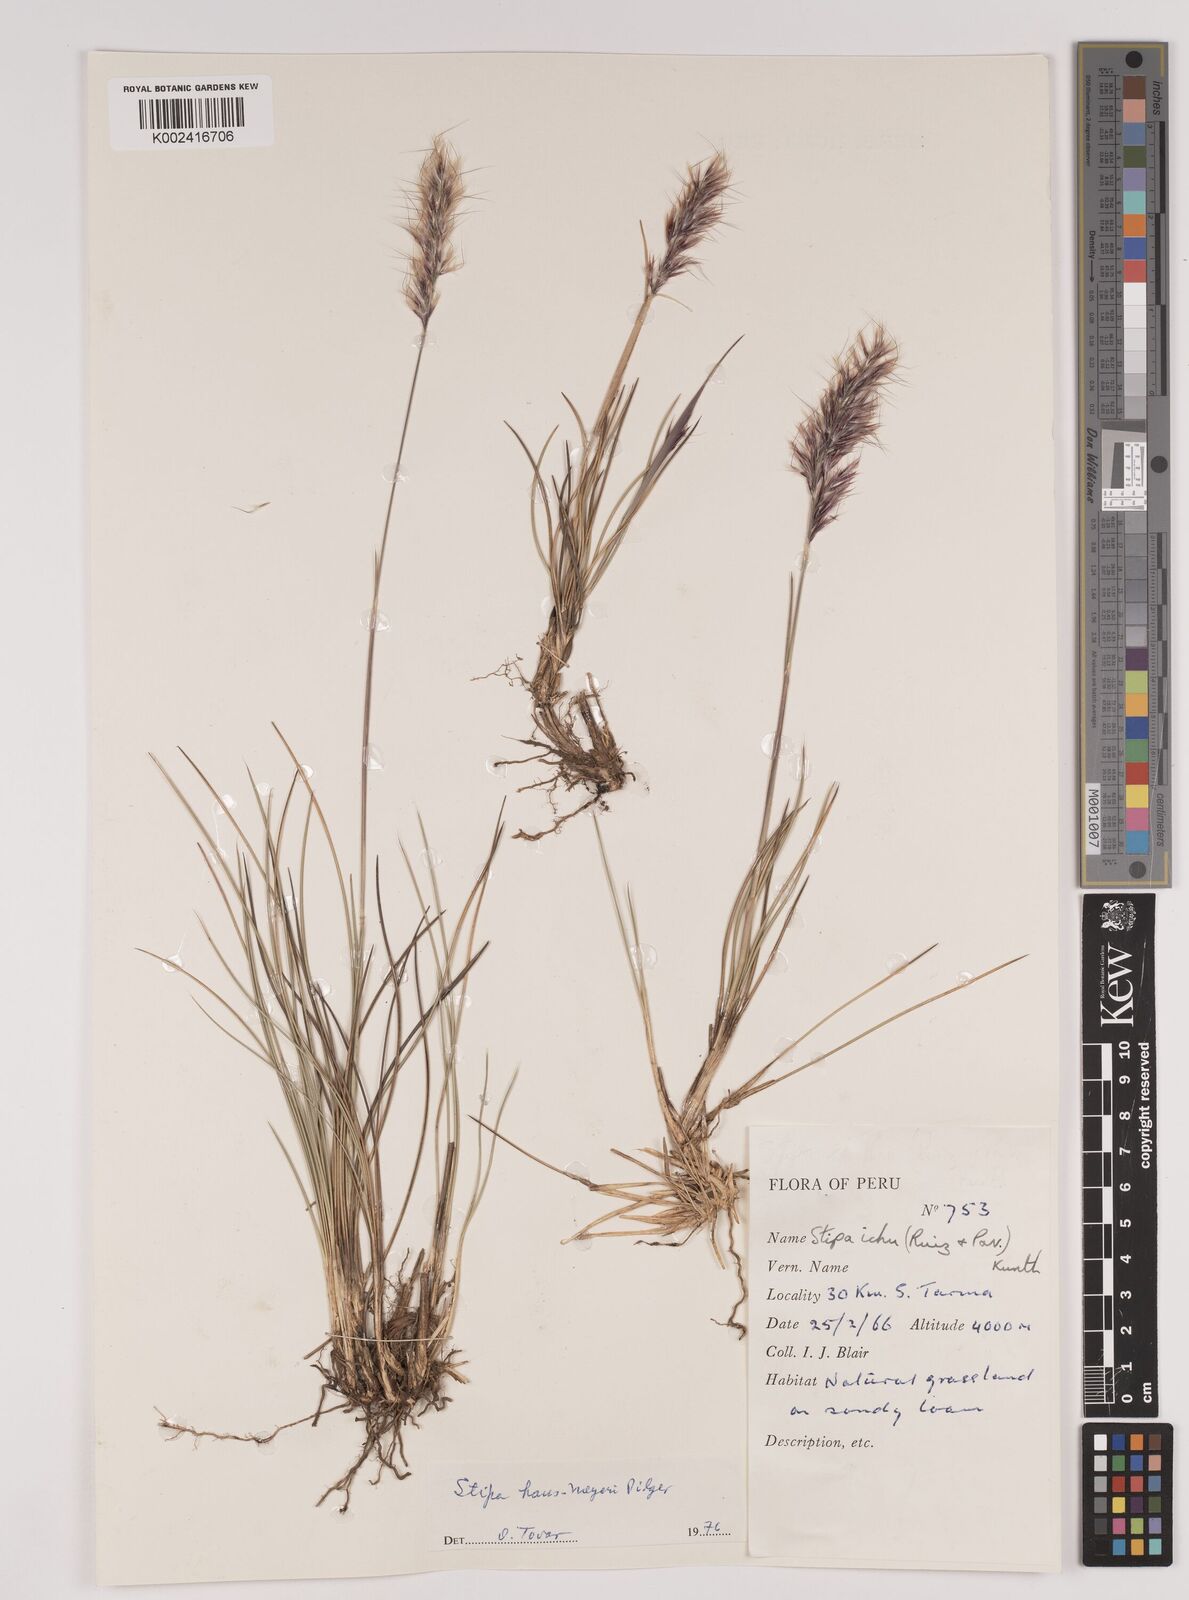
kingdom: Plantae
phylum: Tracheophyta
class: Liliopsida
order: Poales
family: Poaceae
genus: Stipa
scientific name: Stipa hans-meyeri
